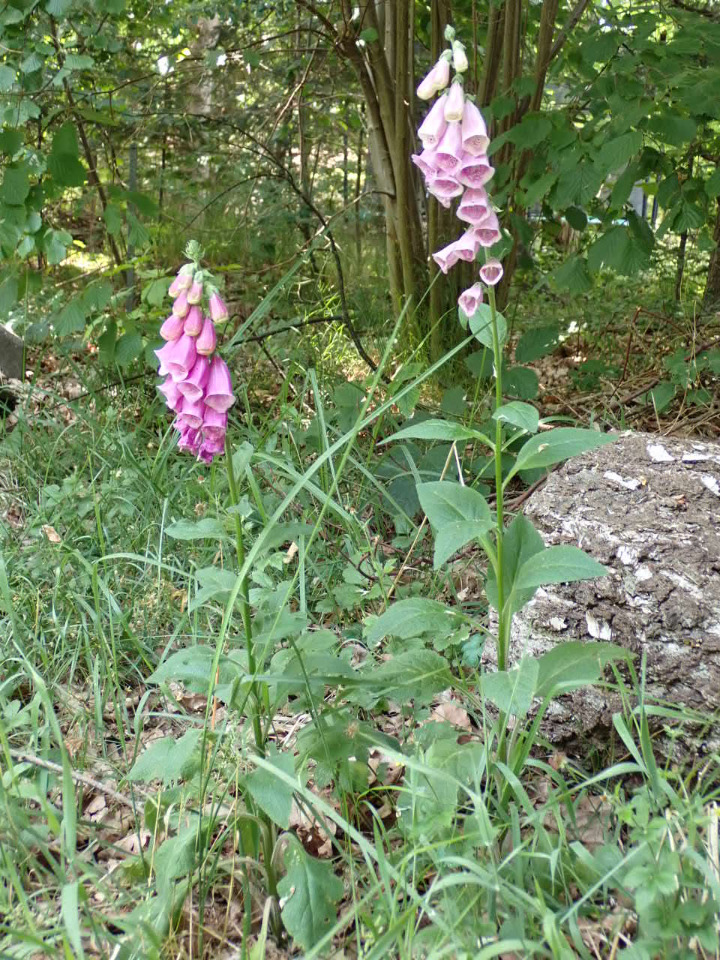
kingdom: Plantae
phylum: Tracheophyta
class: Magnoliopsida
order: Lamiales
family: Plantaginaceae
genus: Digitalis
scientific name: Digitalis purpurea
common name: Almindelig fingerbøl
